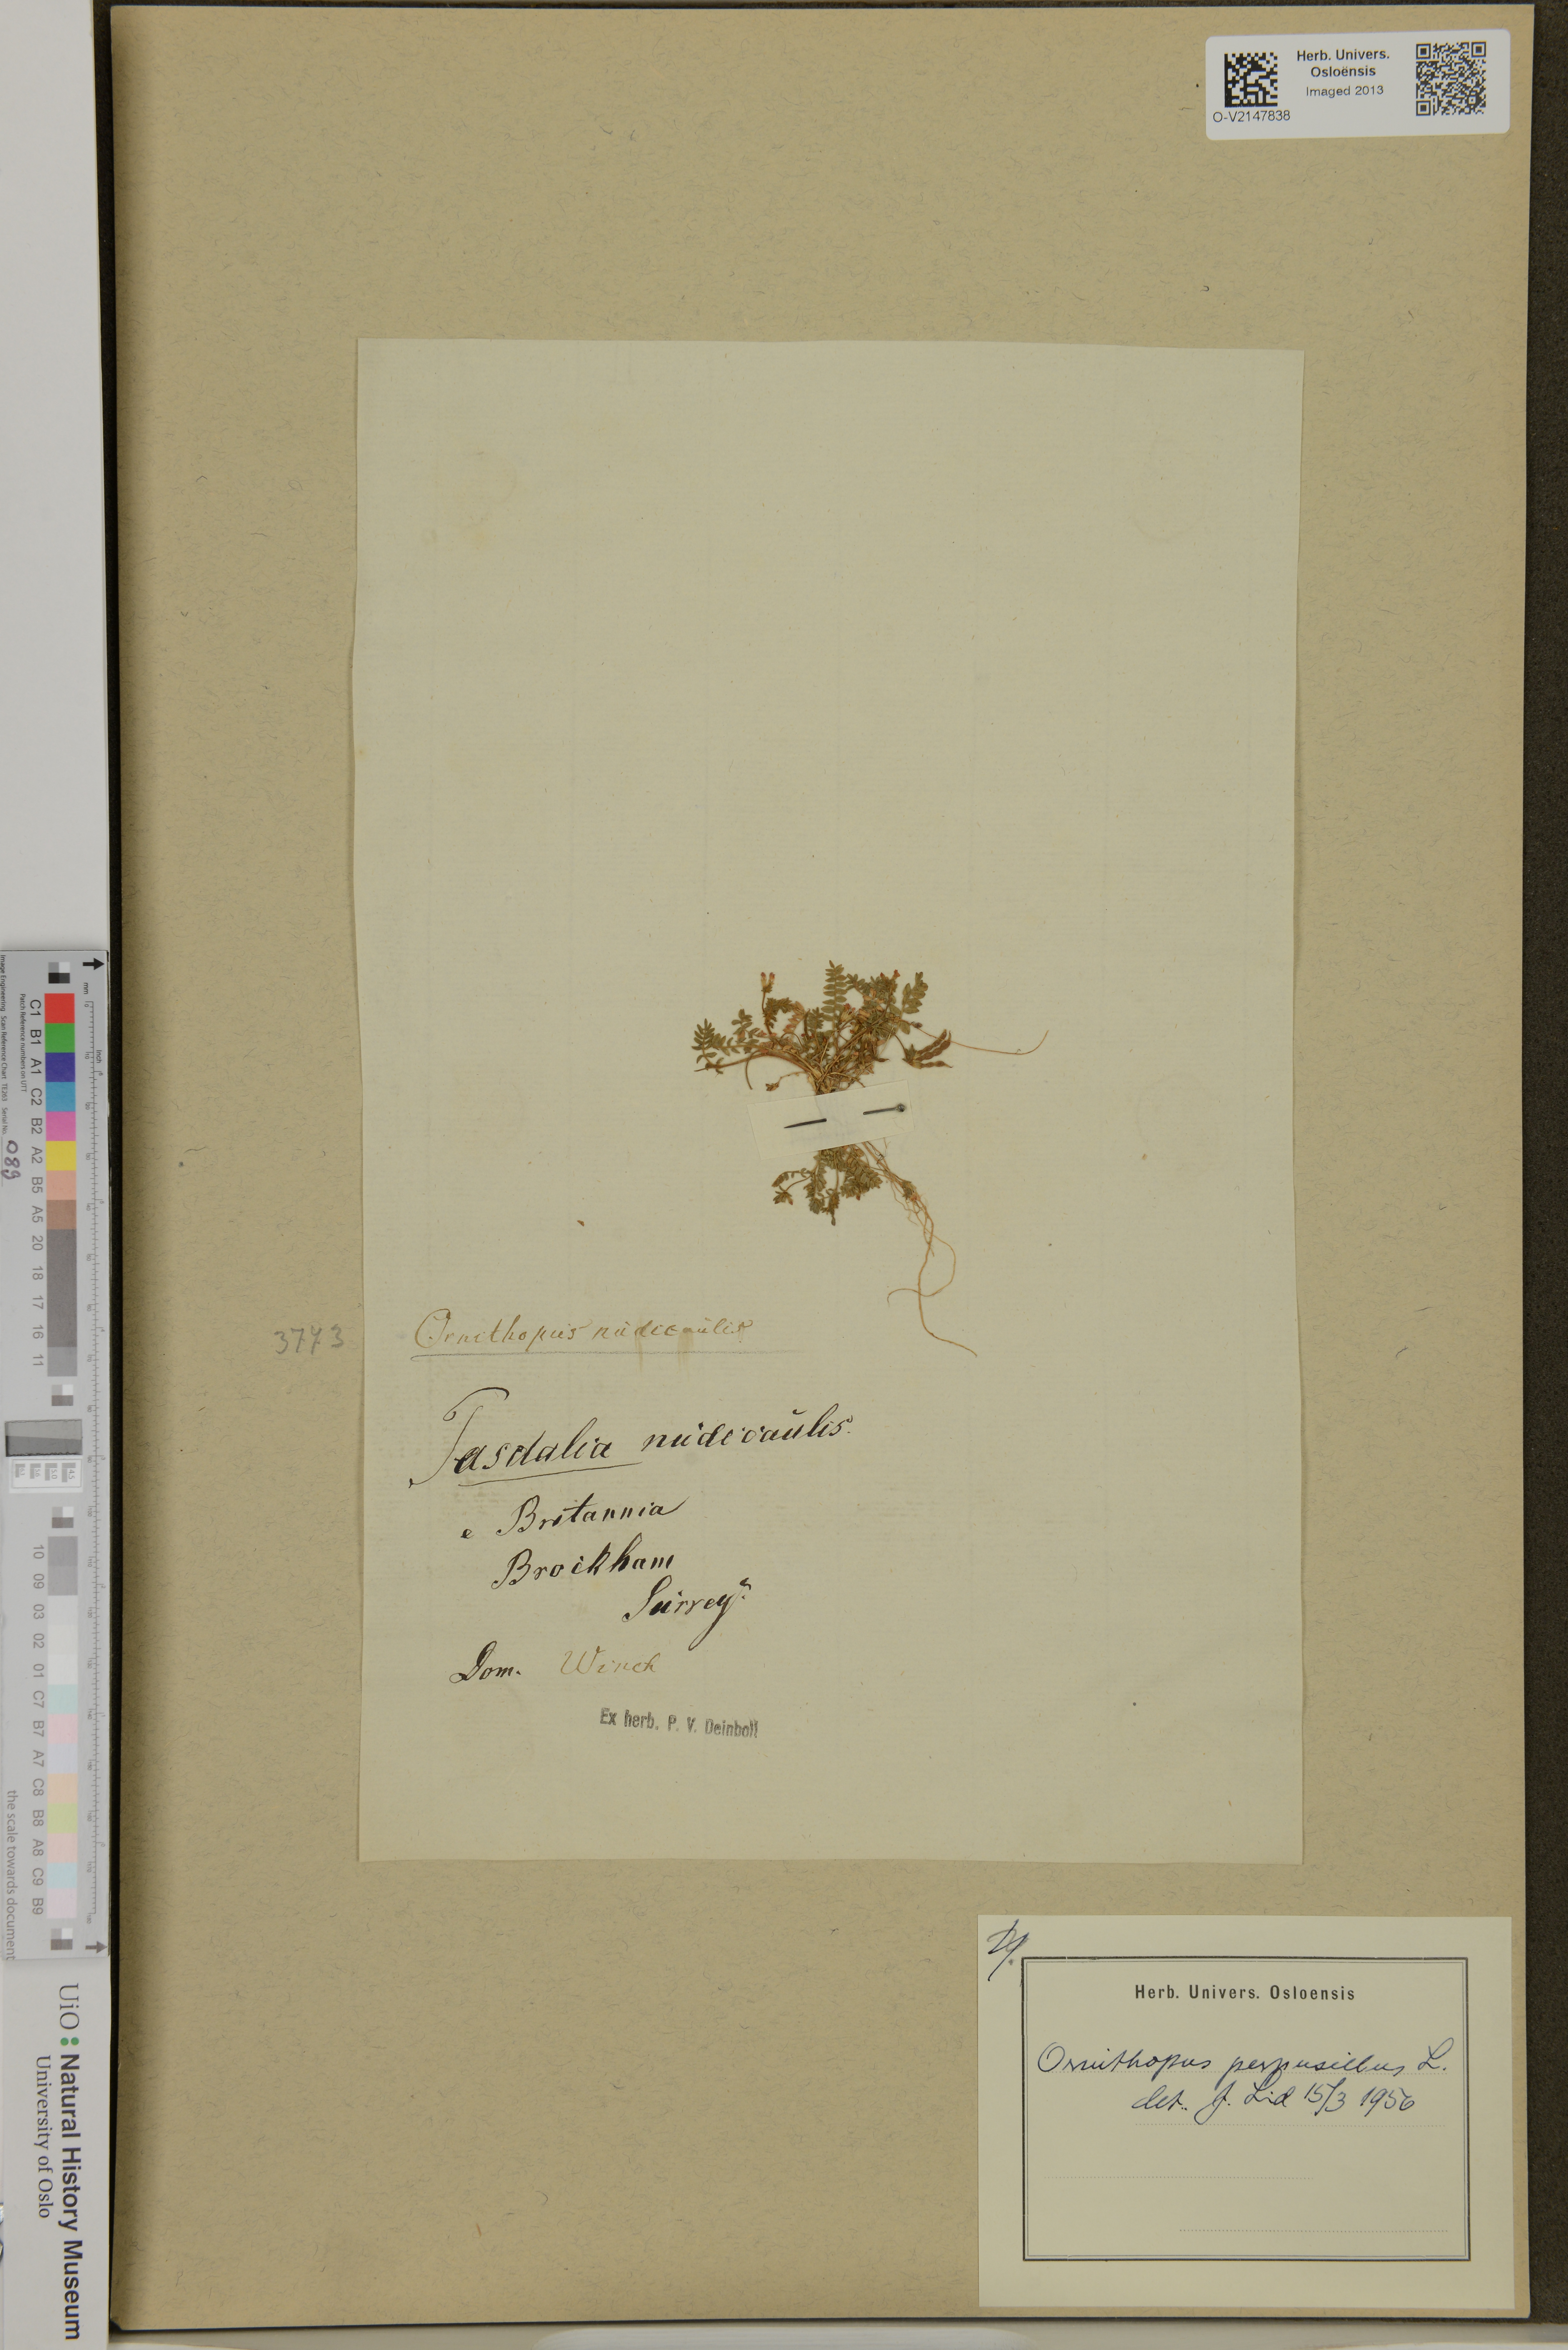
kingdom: Plantae
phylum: Tracheophyta
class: Magnoliopsida
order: Fabales
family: Fabaceae
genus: Ornithopus
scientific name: Ornithopus perpusillus
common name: Bird's-foot
